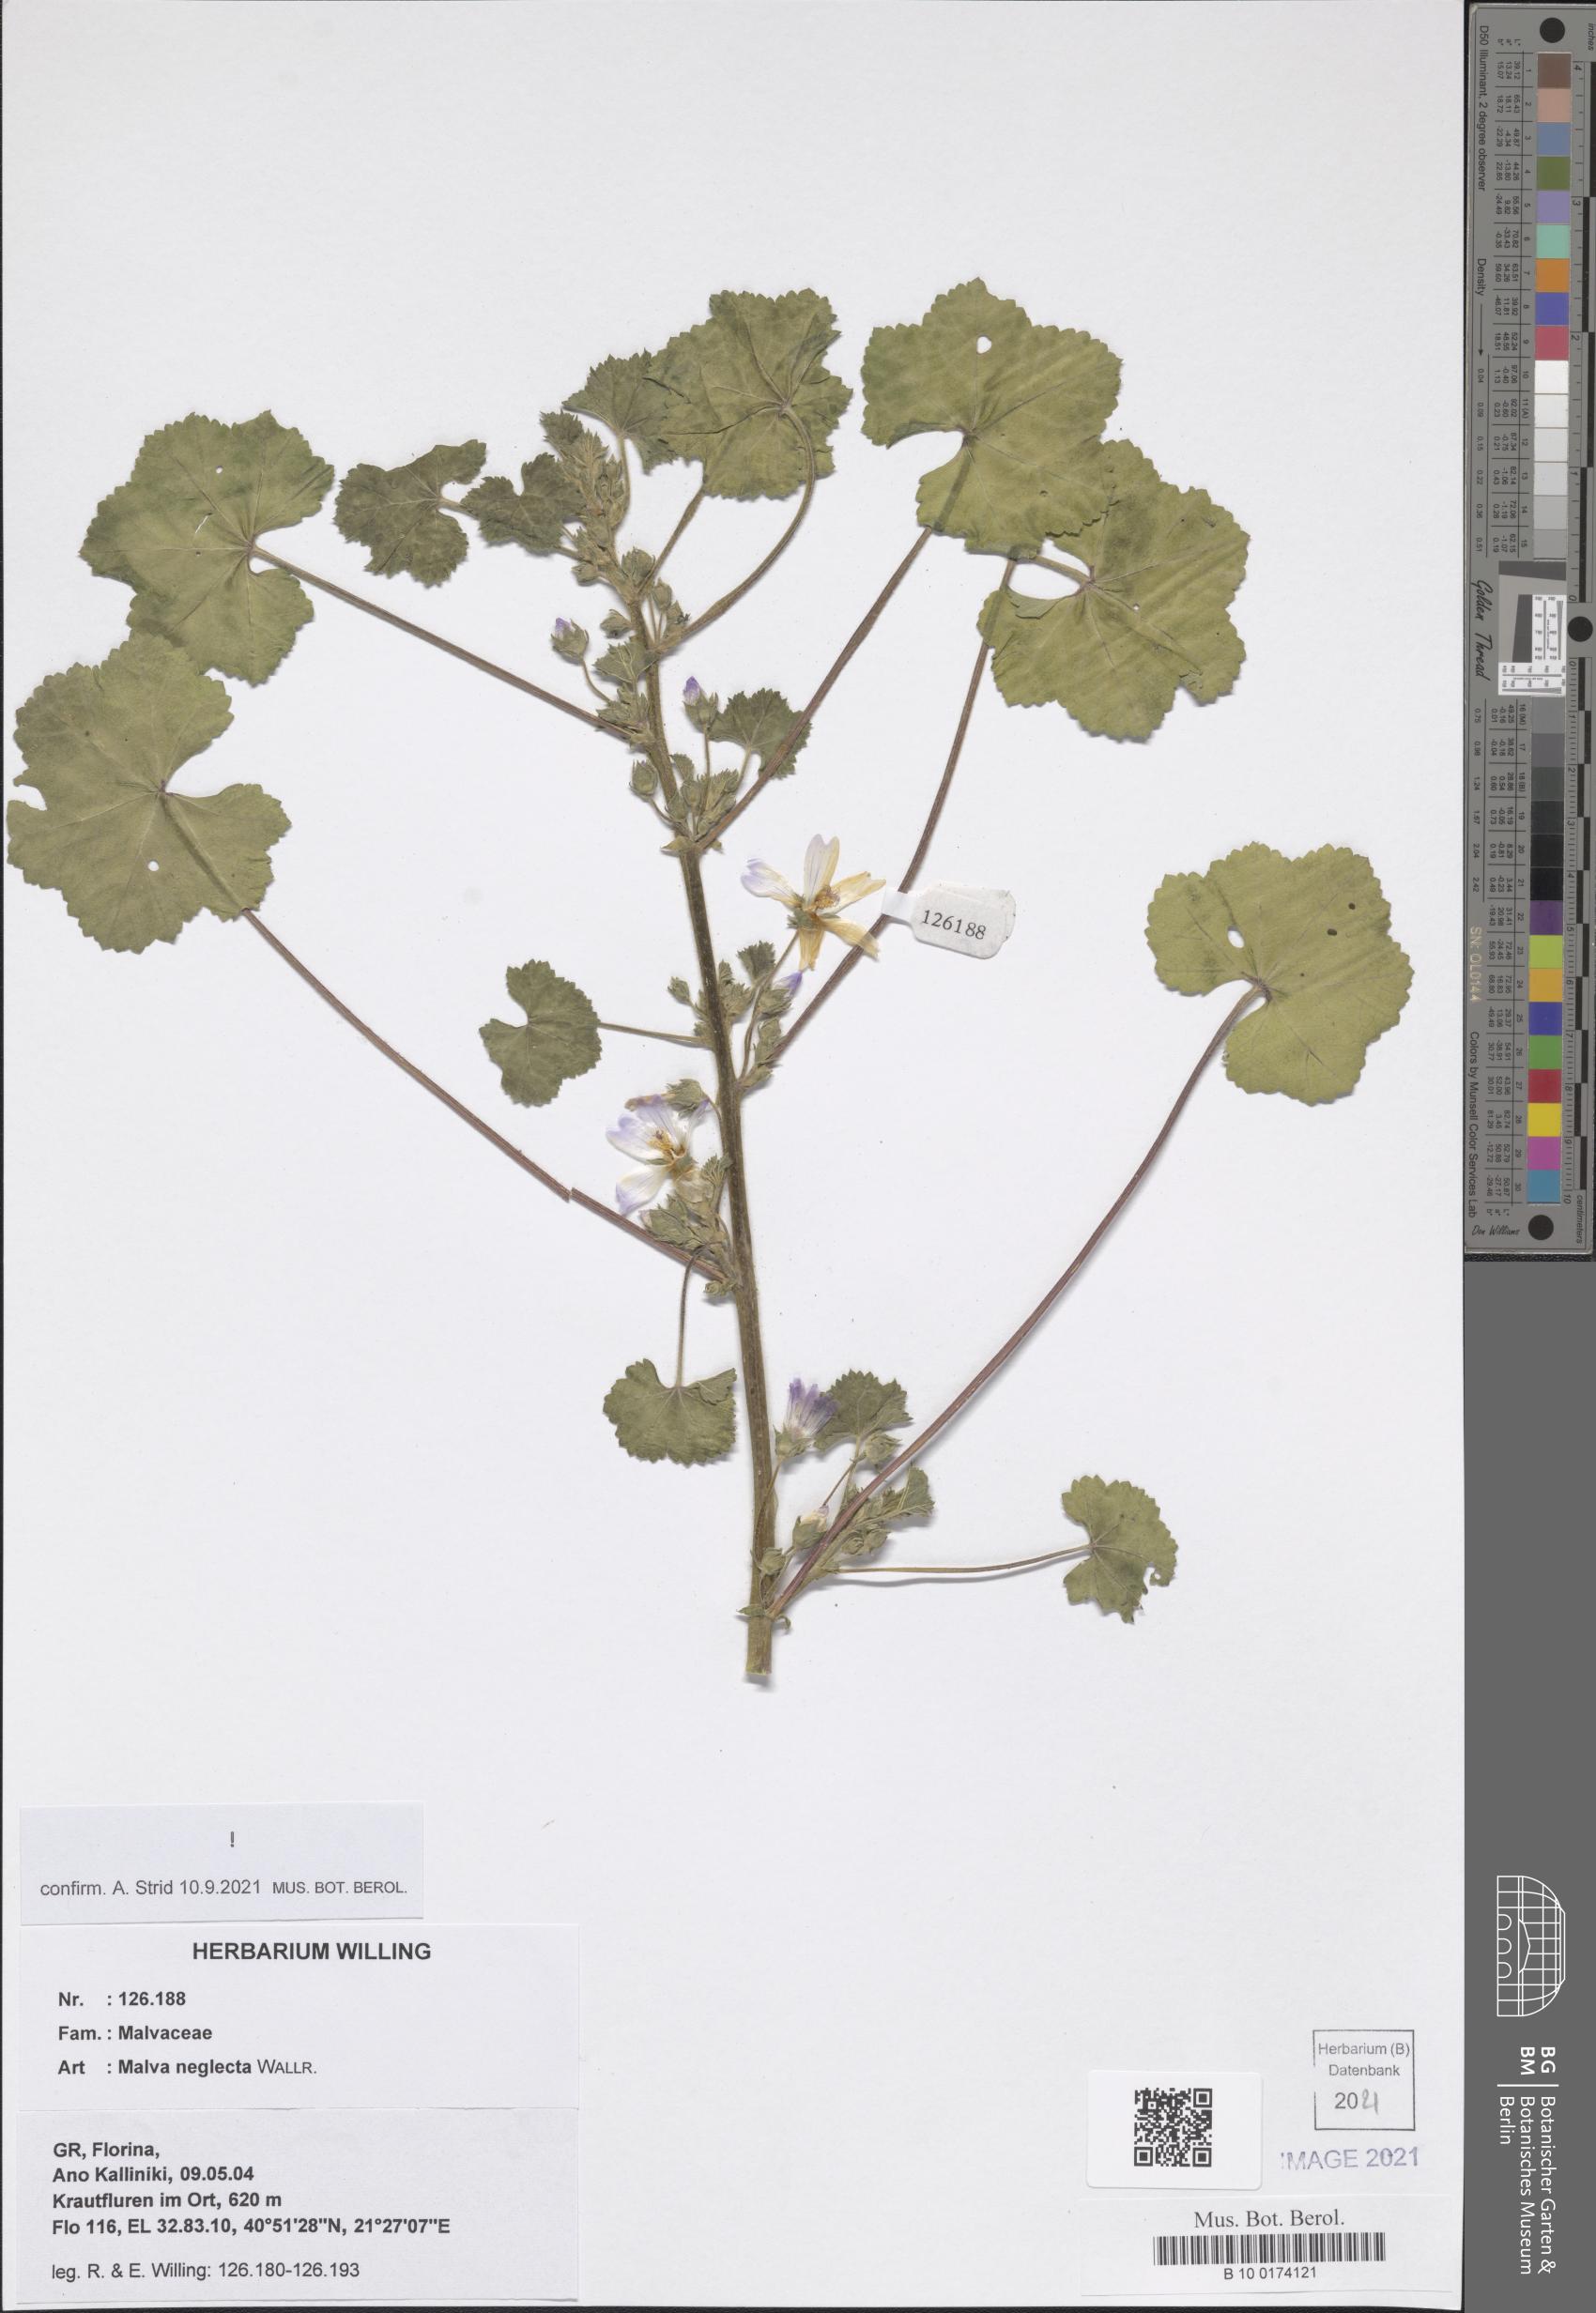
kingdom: Plantae
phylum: Tracheophyta
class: Magnoliopsida
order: Malvales
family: Malvaceae
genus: Malva
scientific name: Malva neglecta
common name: Common mallow
